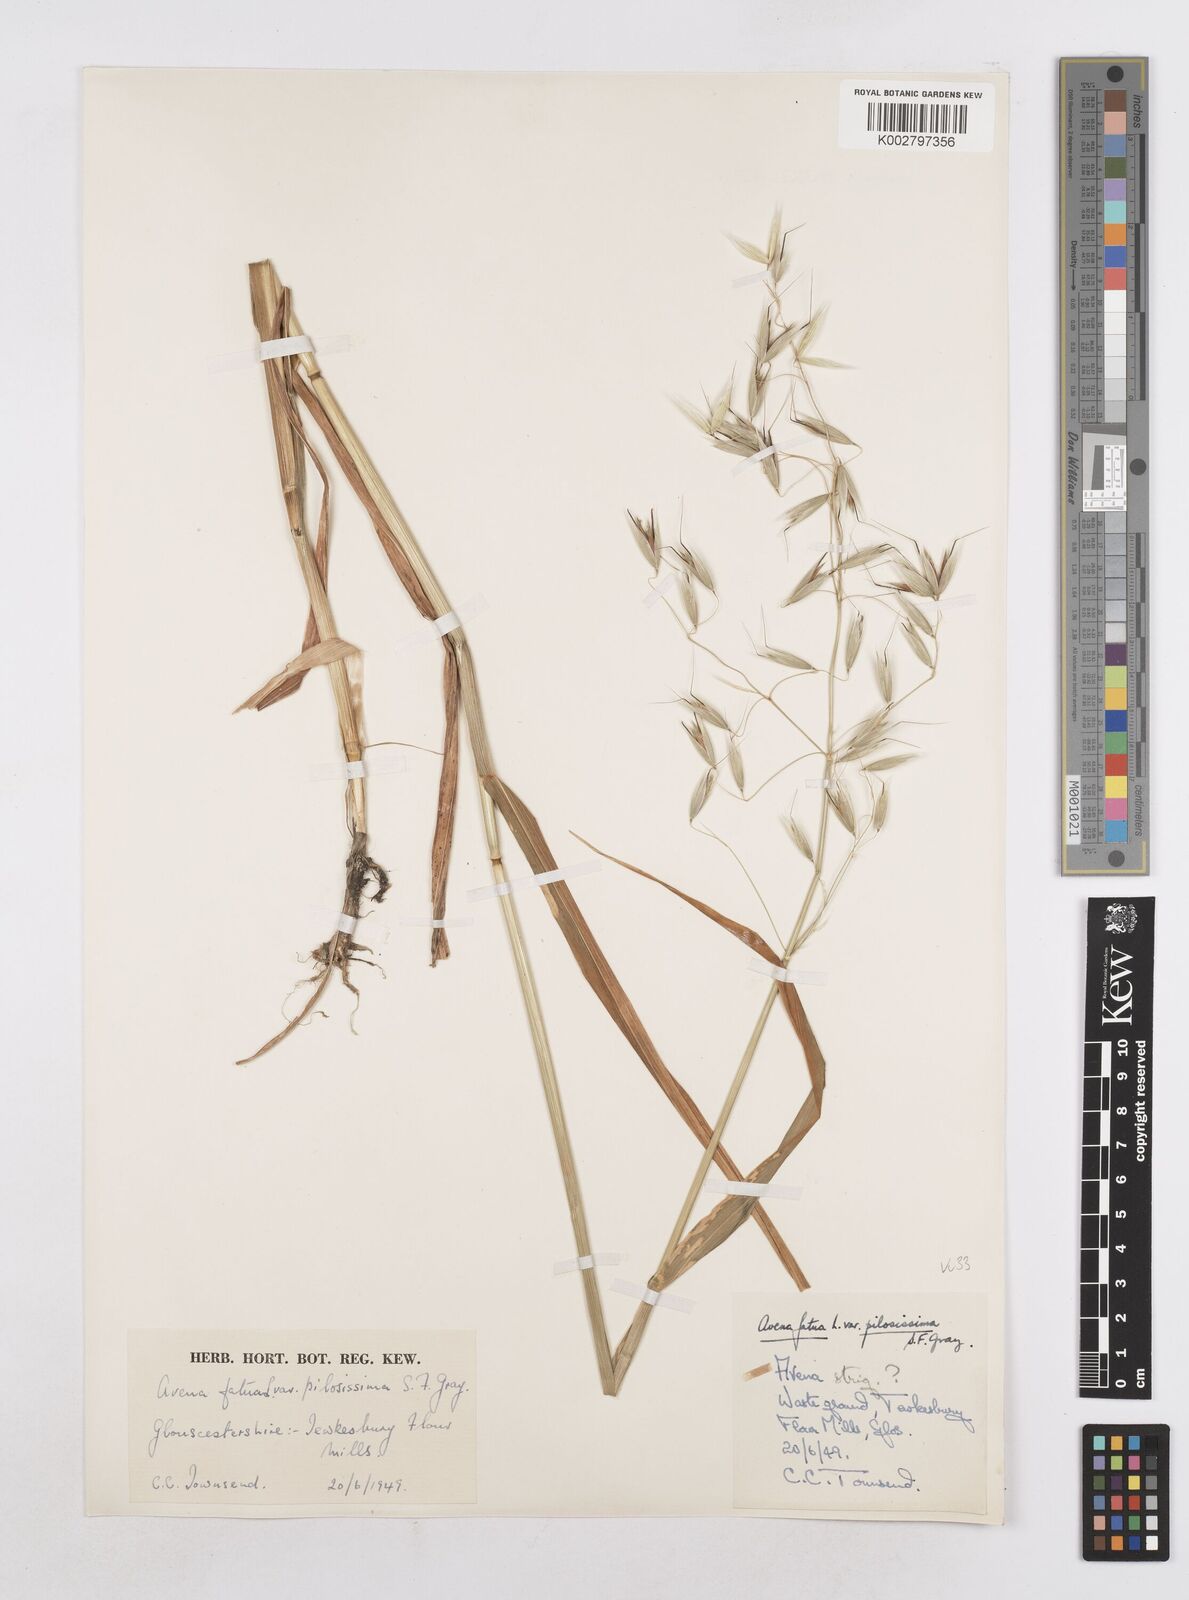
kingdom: Plantae
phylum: Tracheophyta
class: Liliopsida
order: Poales
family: Poaceae
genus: Avena
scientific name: Avena fatua
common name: Wild oat
